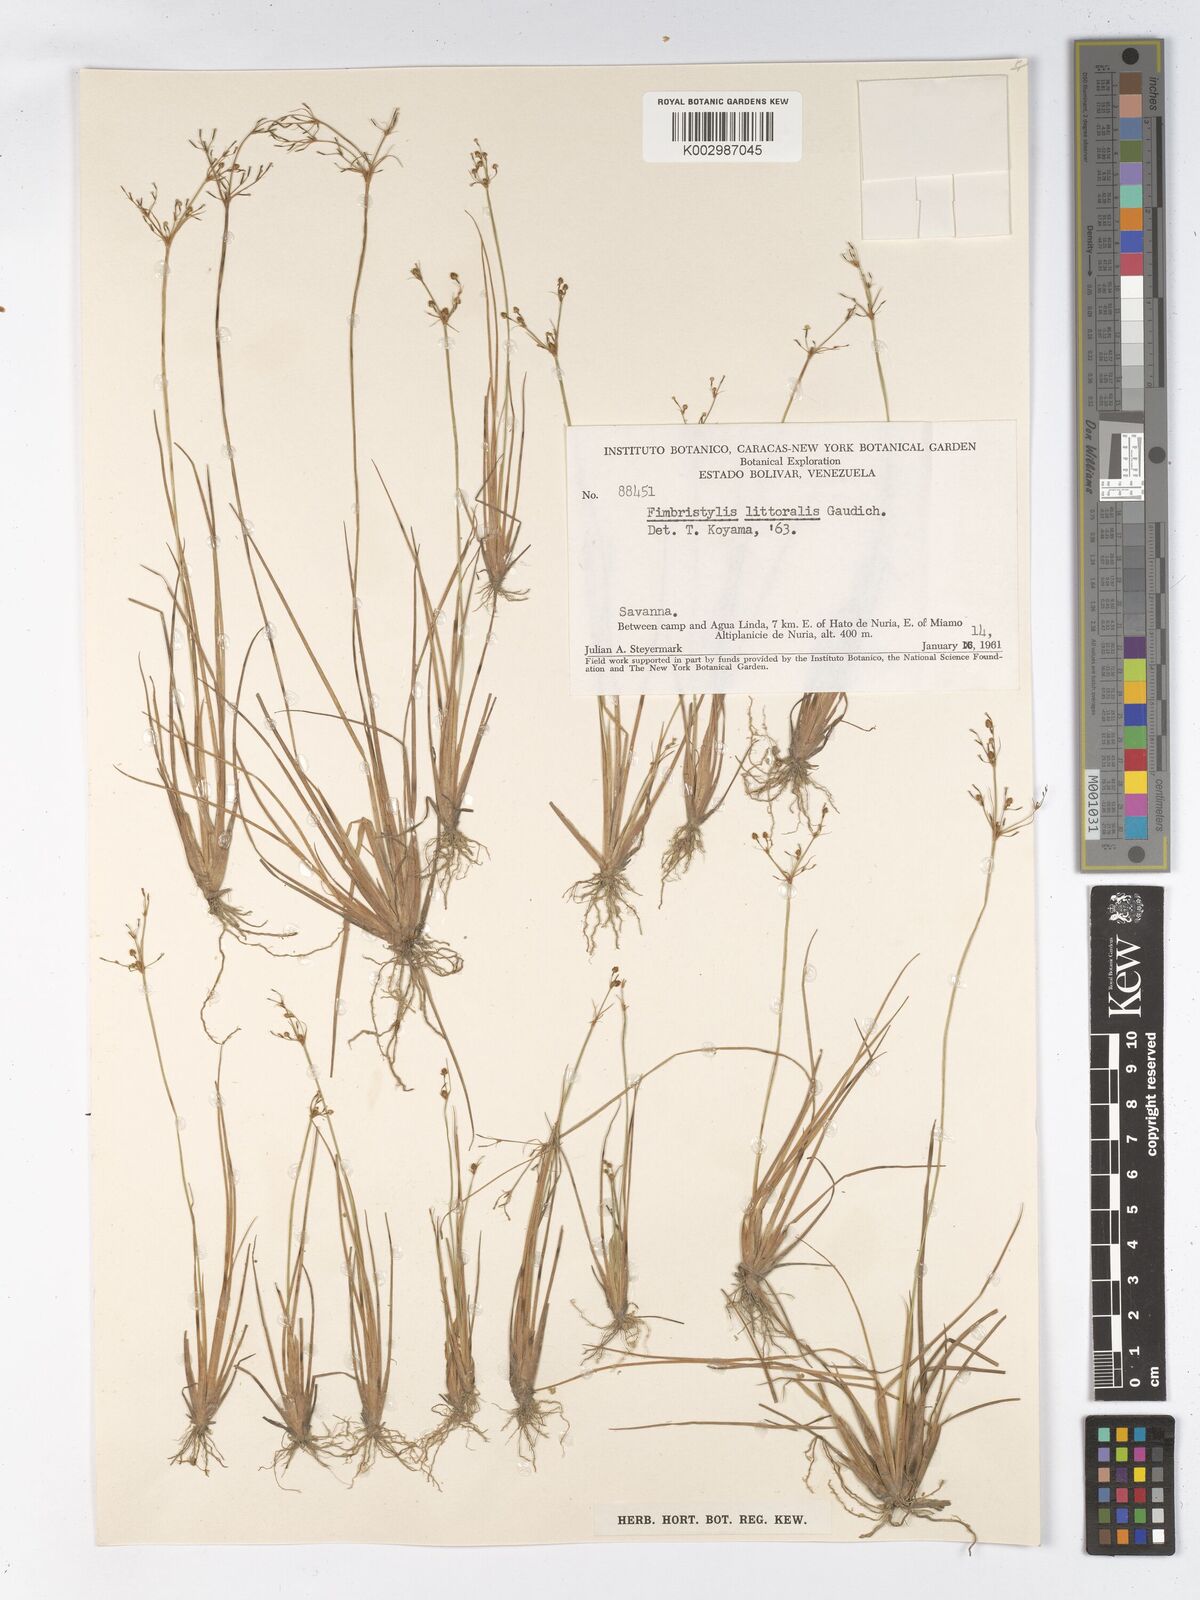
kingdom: Plantae
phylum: Tracheophyta
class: Liliopsida
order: Poales
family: Cyperaceae
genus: Fimbristylis
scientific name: Fimbristylis littoralis
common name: Fimbry
